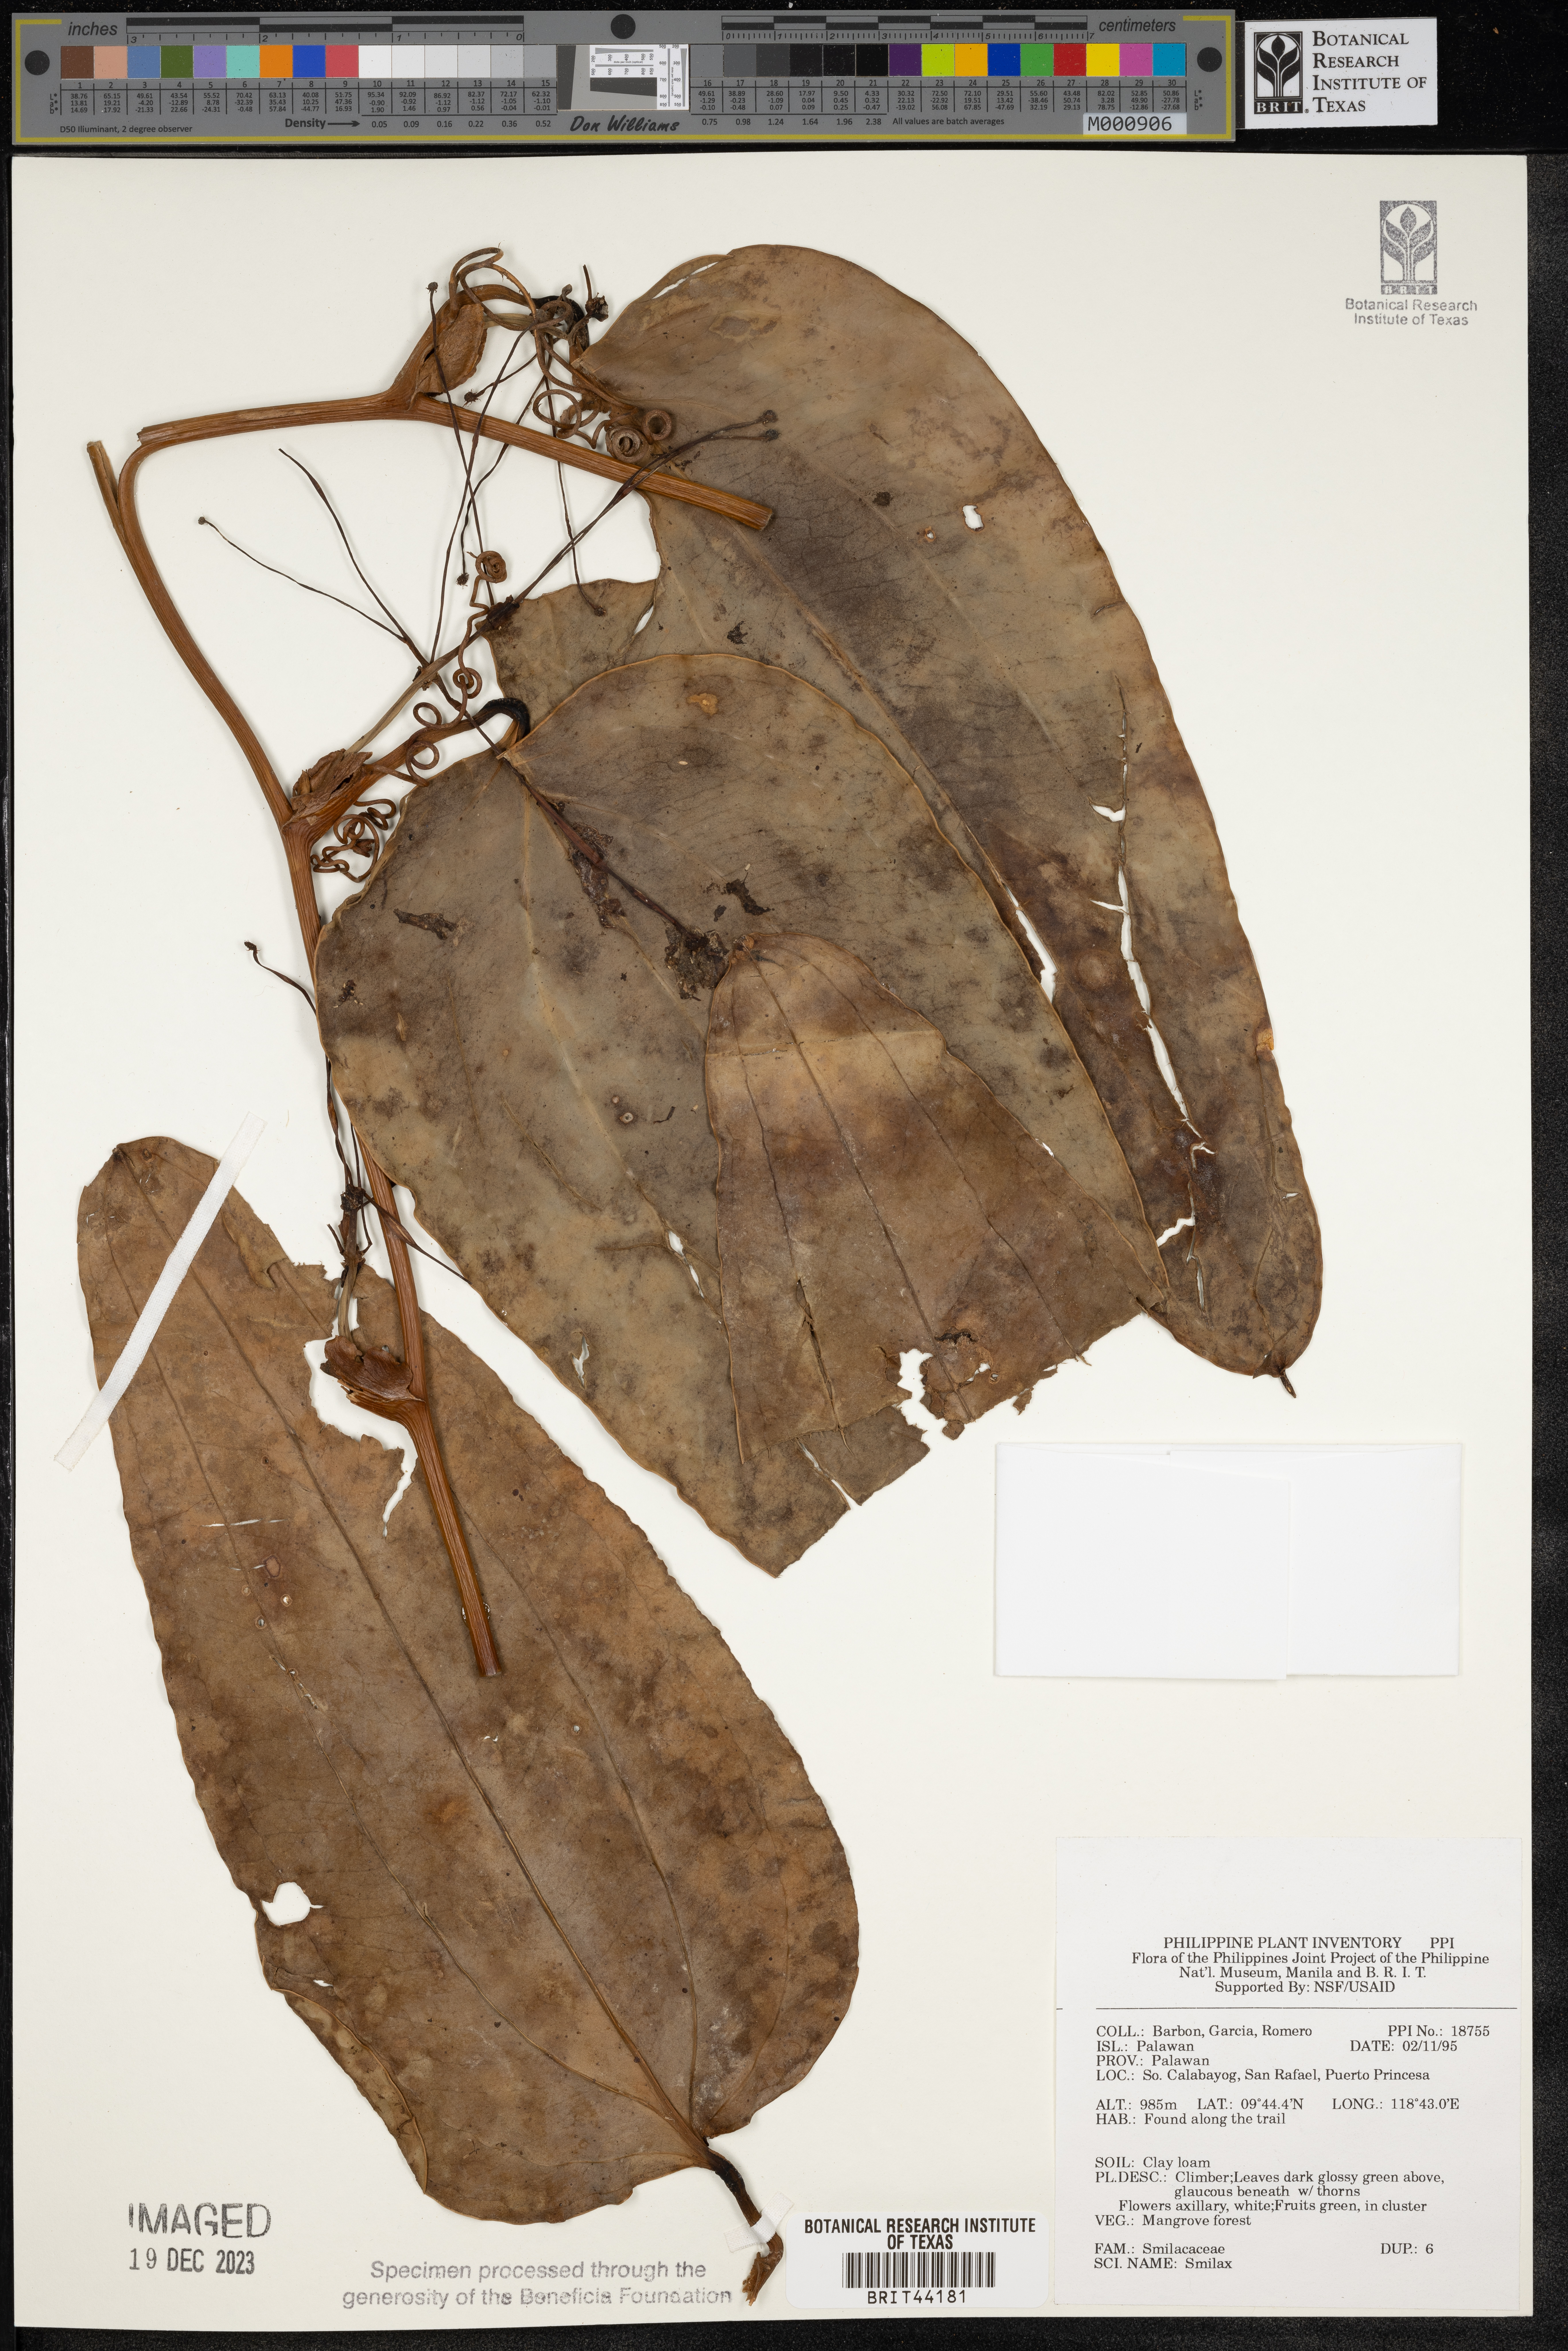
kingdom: Plantae
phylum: Tracheophyta
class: Liliopsida
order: Liliales
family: Smilacaceae
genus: Smilax
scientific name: Smilax
